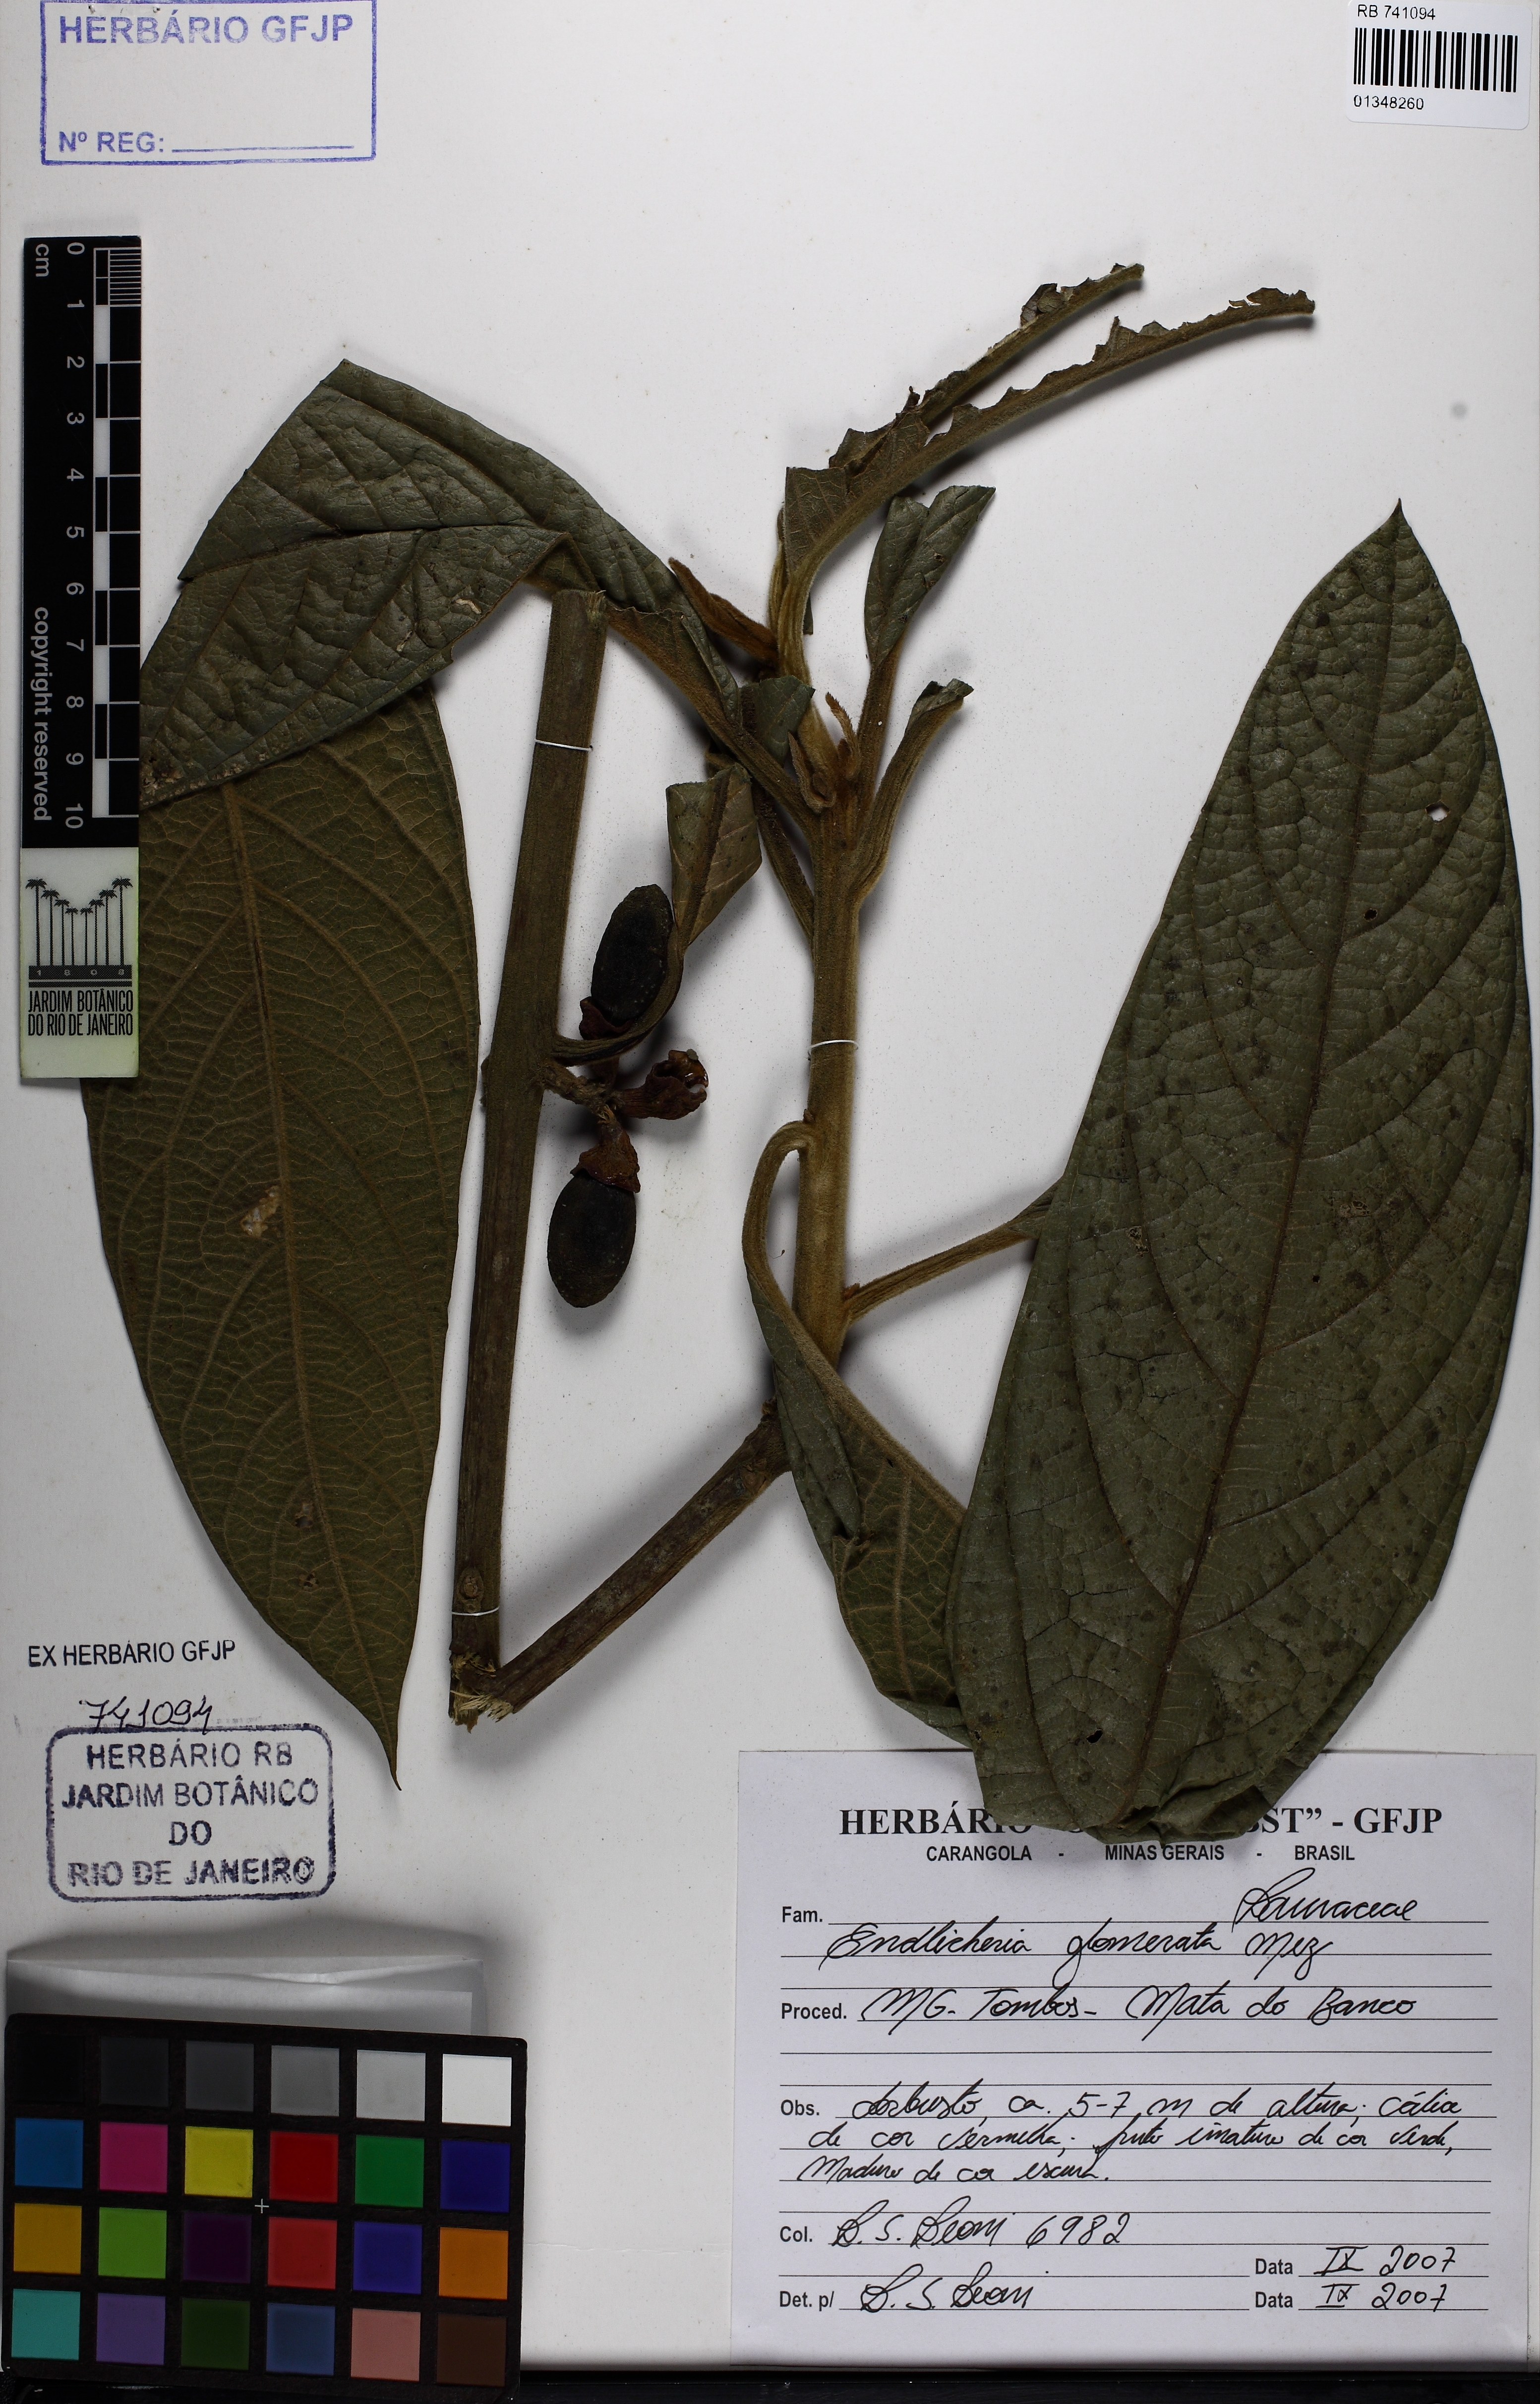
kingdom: Plantae
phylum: Tracheophyta
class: Magnoliopsida
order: Laurales
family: Lauraceae
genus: Endlicheria
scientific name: Endlicheria glomerata
